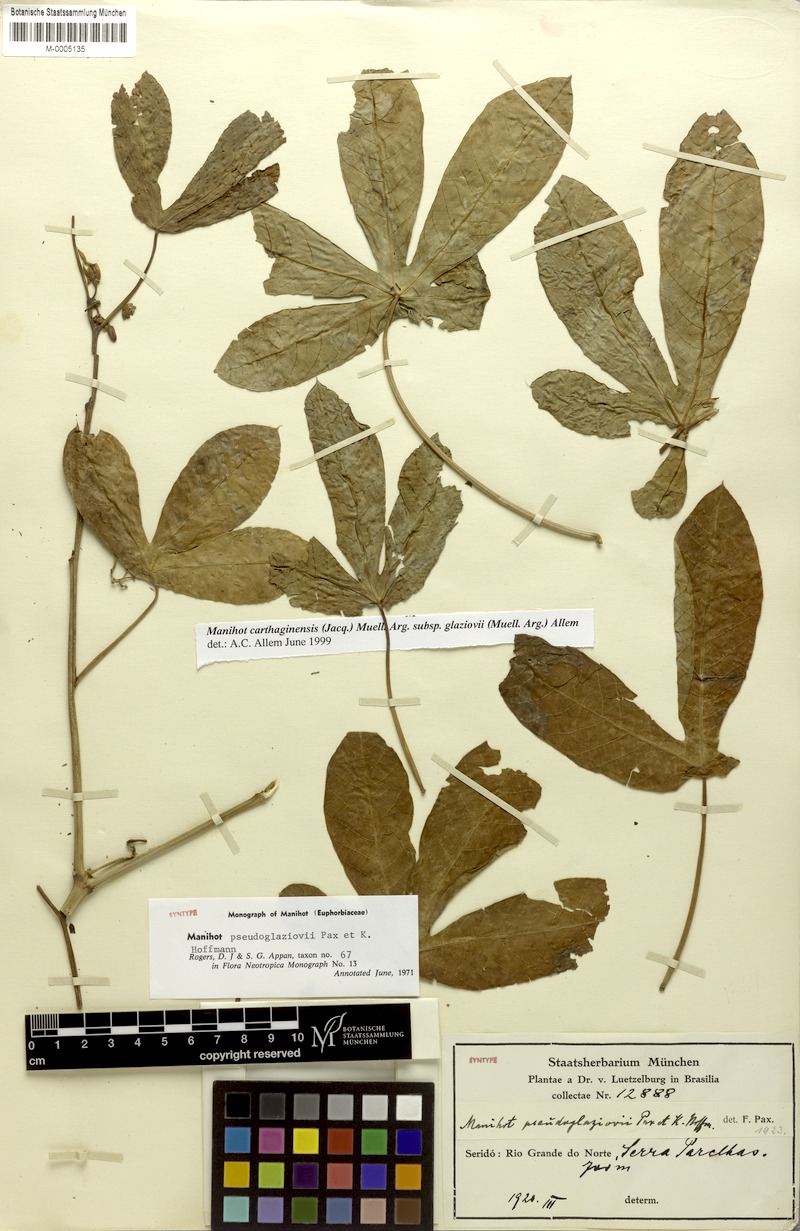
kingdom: Plantae
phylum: Tracheophyta
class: Magnoliopsida
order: Malpighiales
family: Euphorbiaceae
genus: Manihot
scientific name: Manihot carthaginensis
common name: Ceara rubbertree
